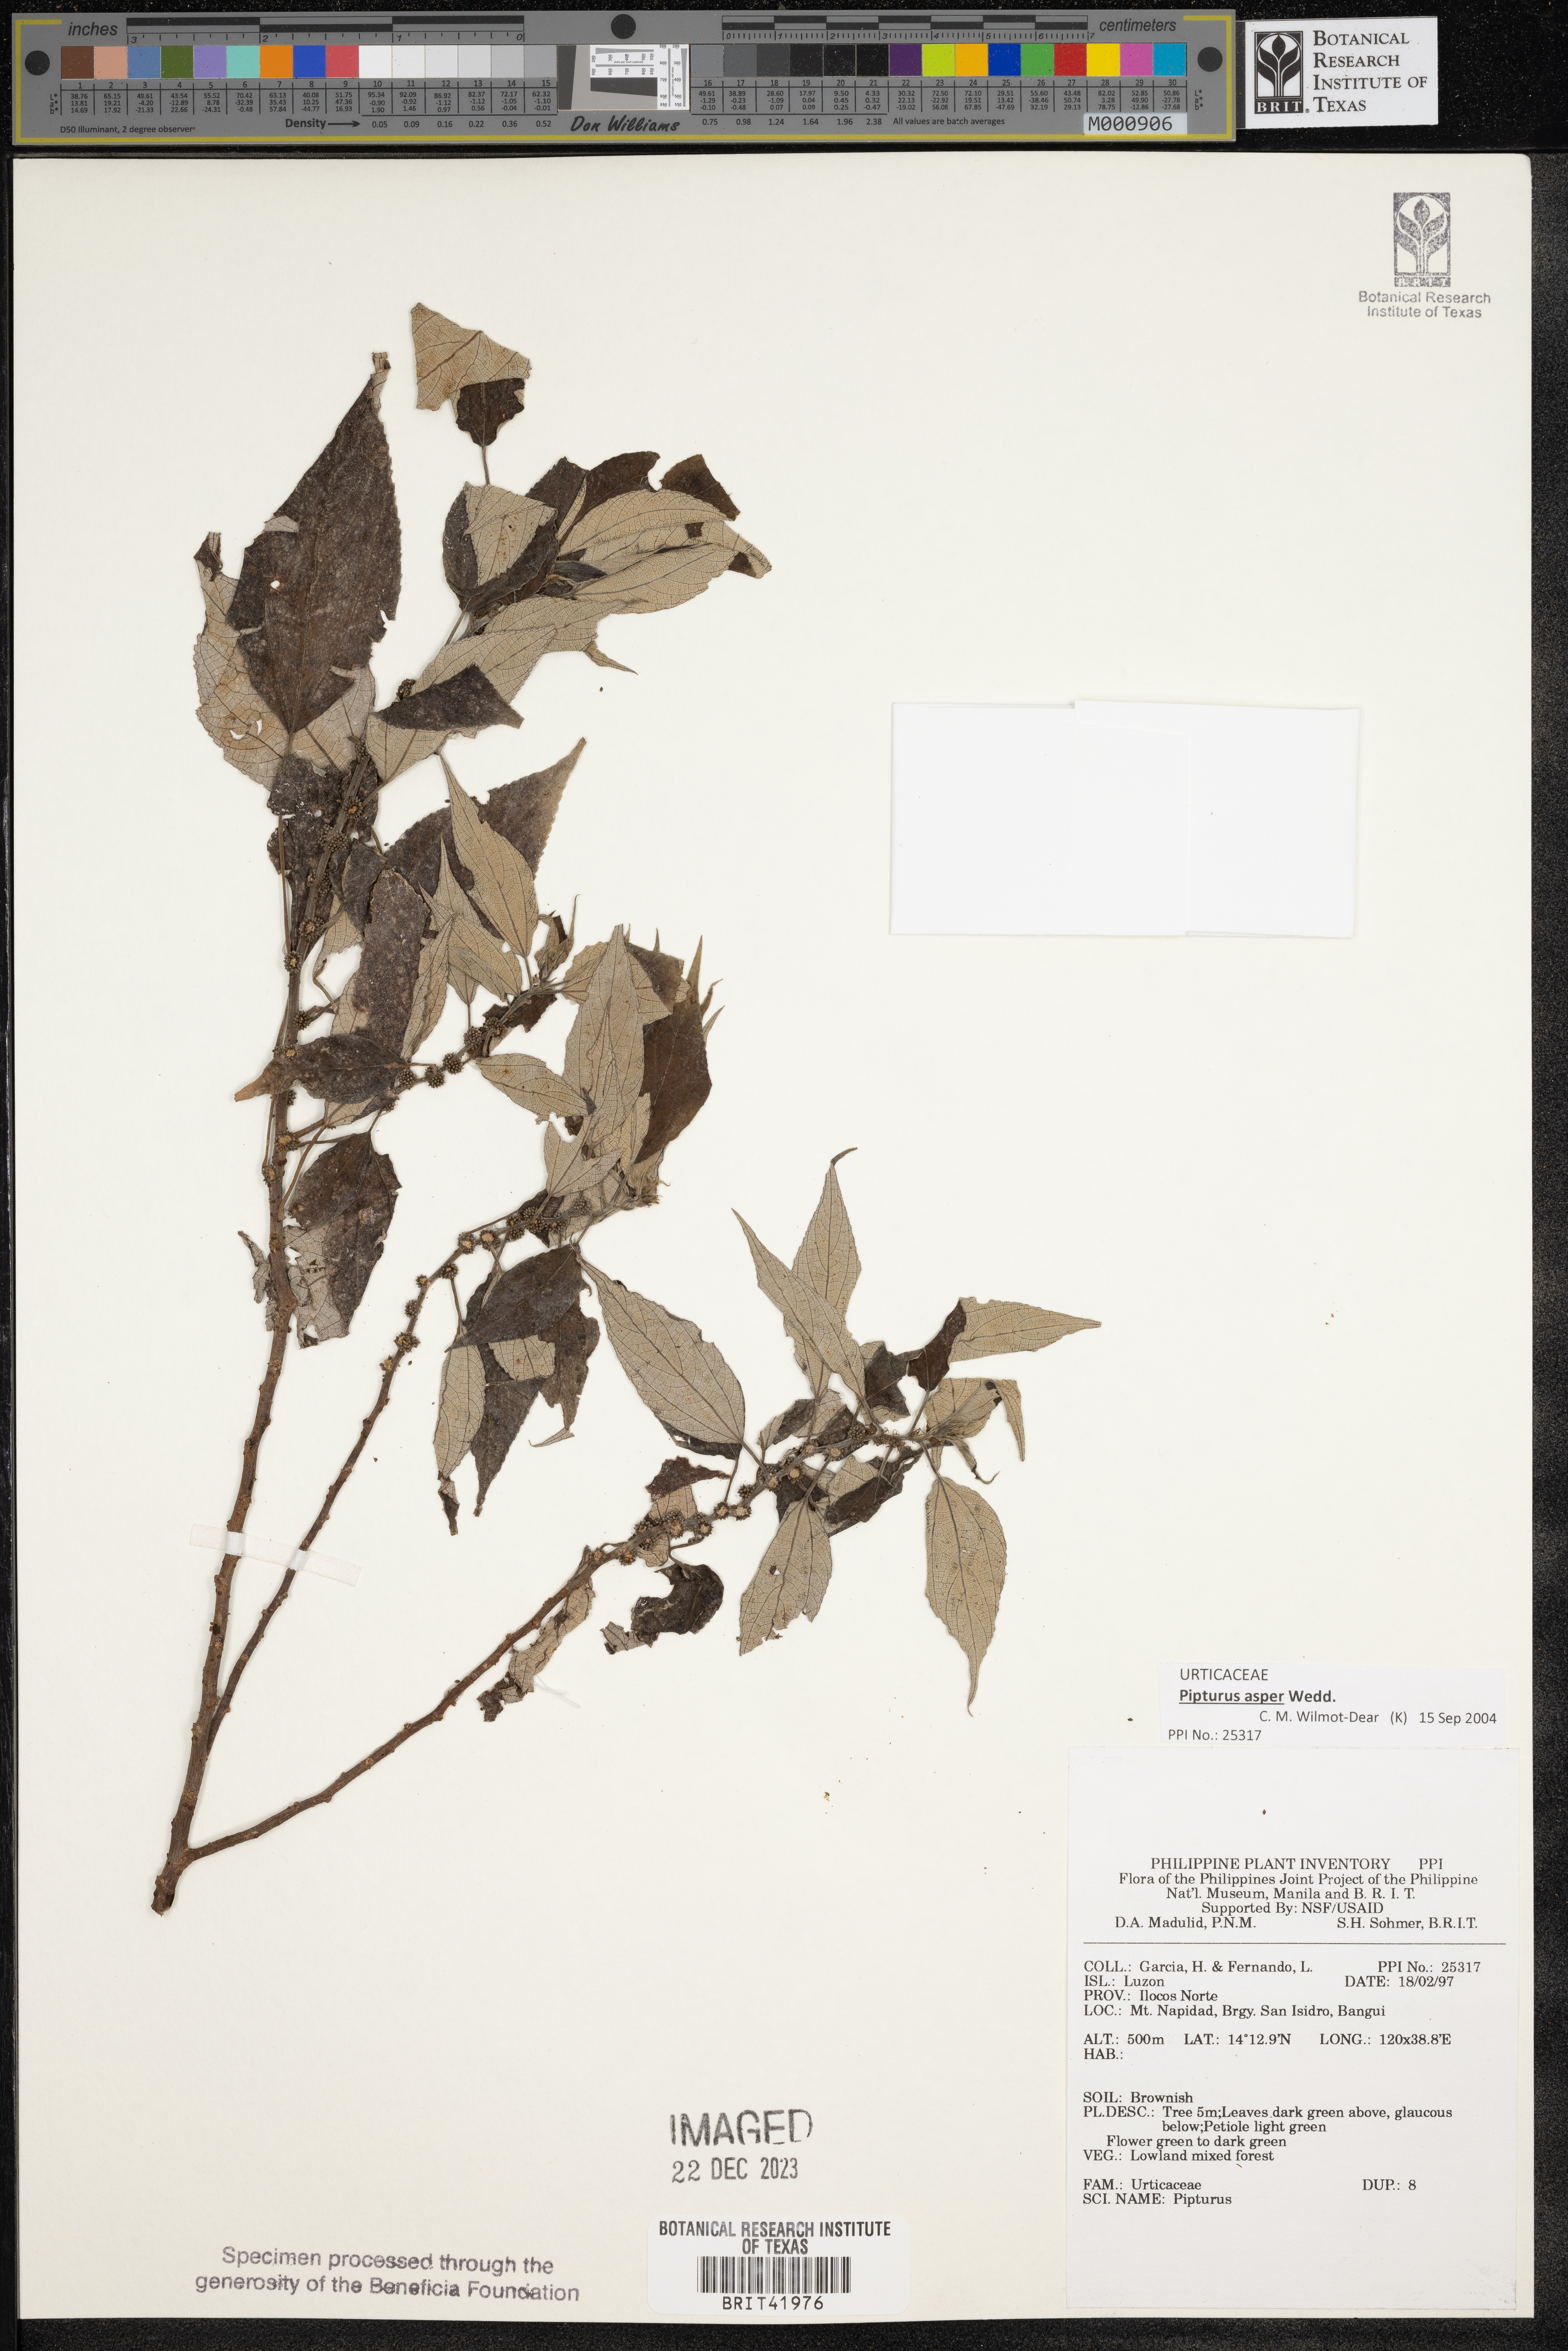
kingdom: Plantae
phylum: Tracheophyta
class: Magnoliopsida
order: Rosales
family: Urticaceae
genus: Pipturus
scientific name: Pipturus
